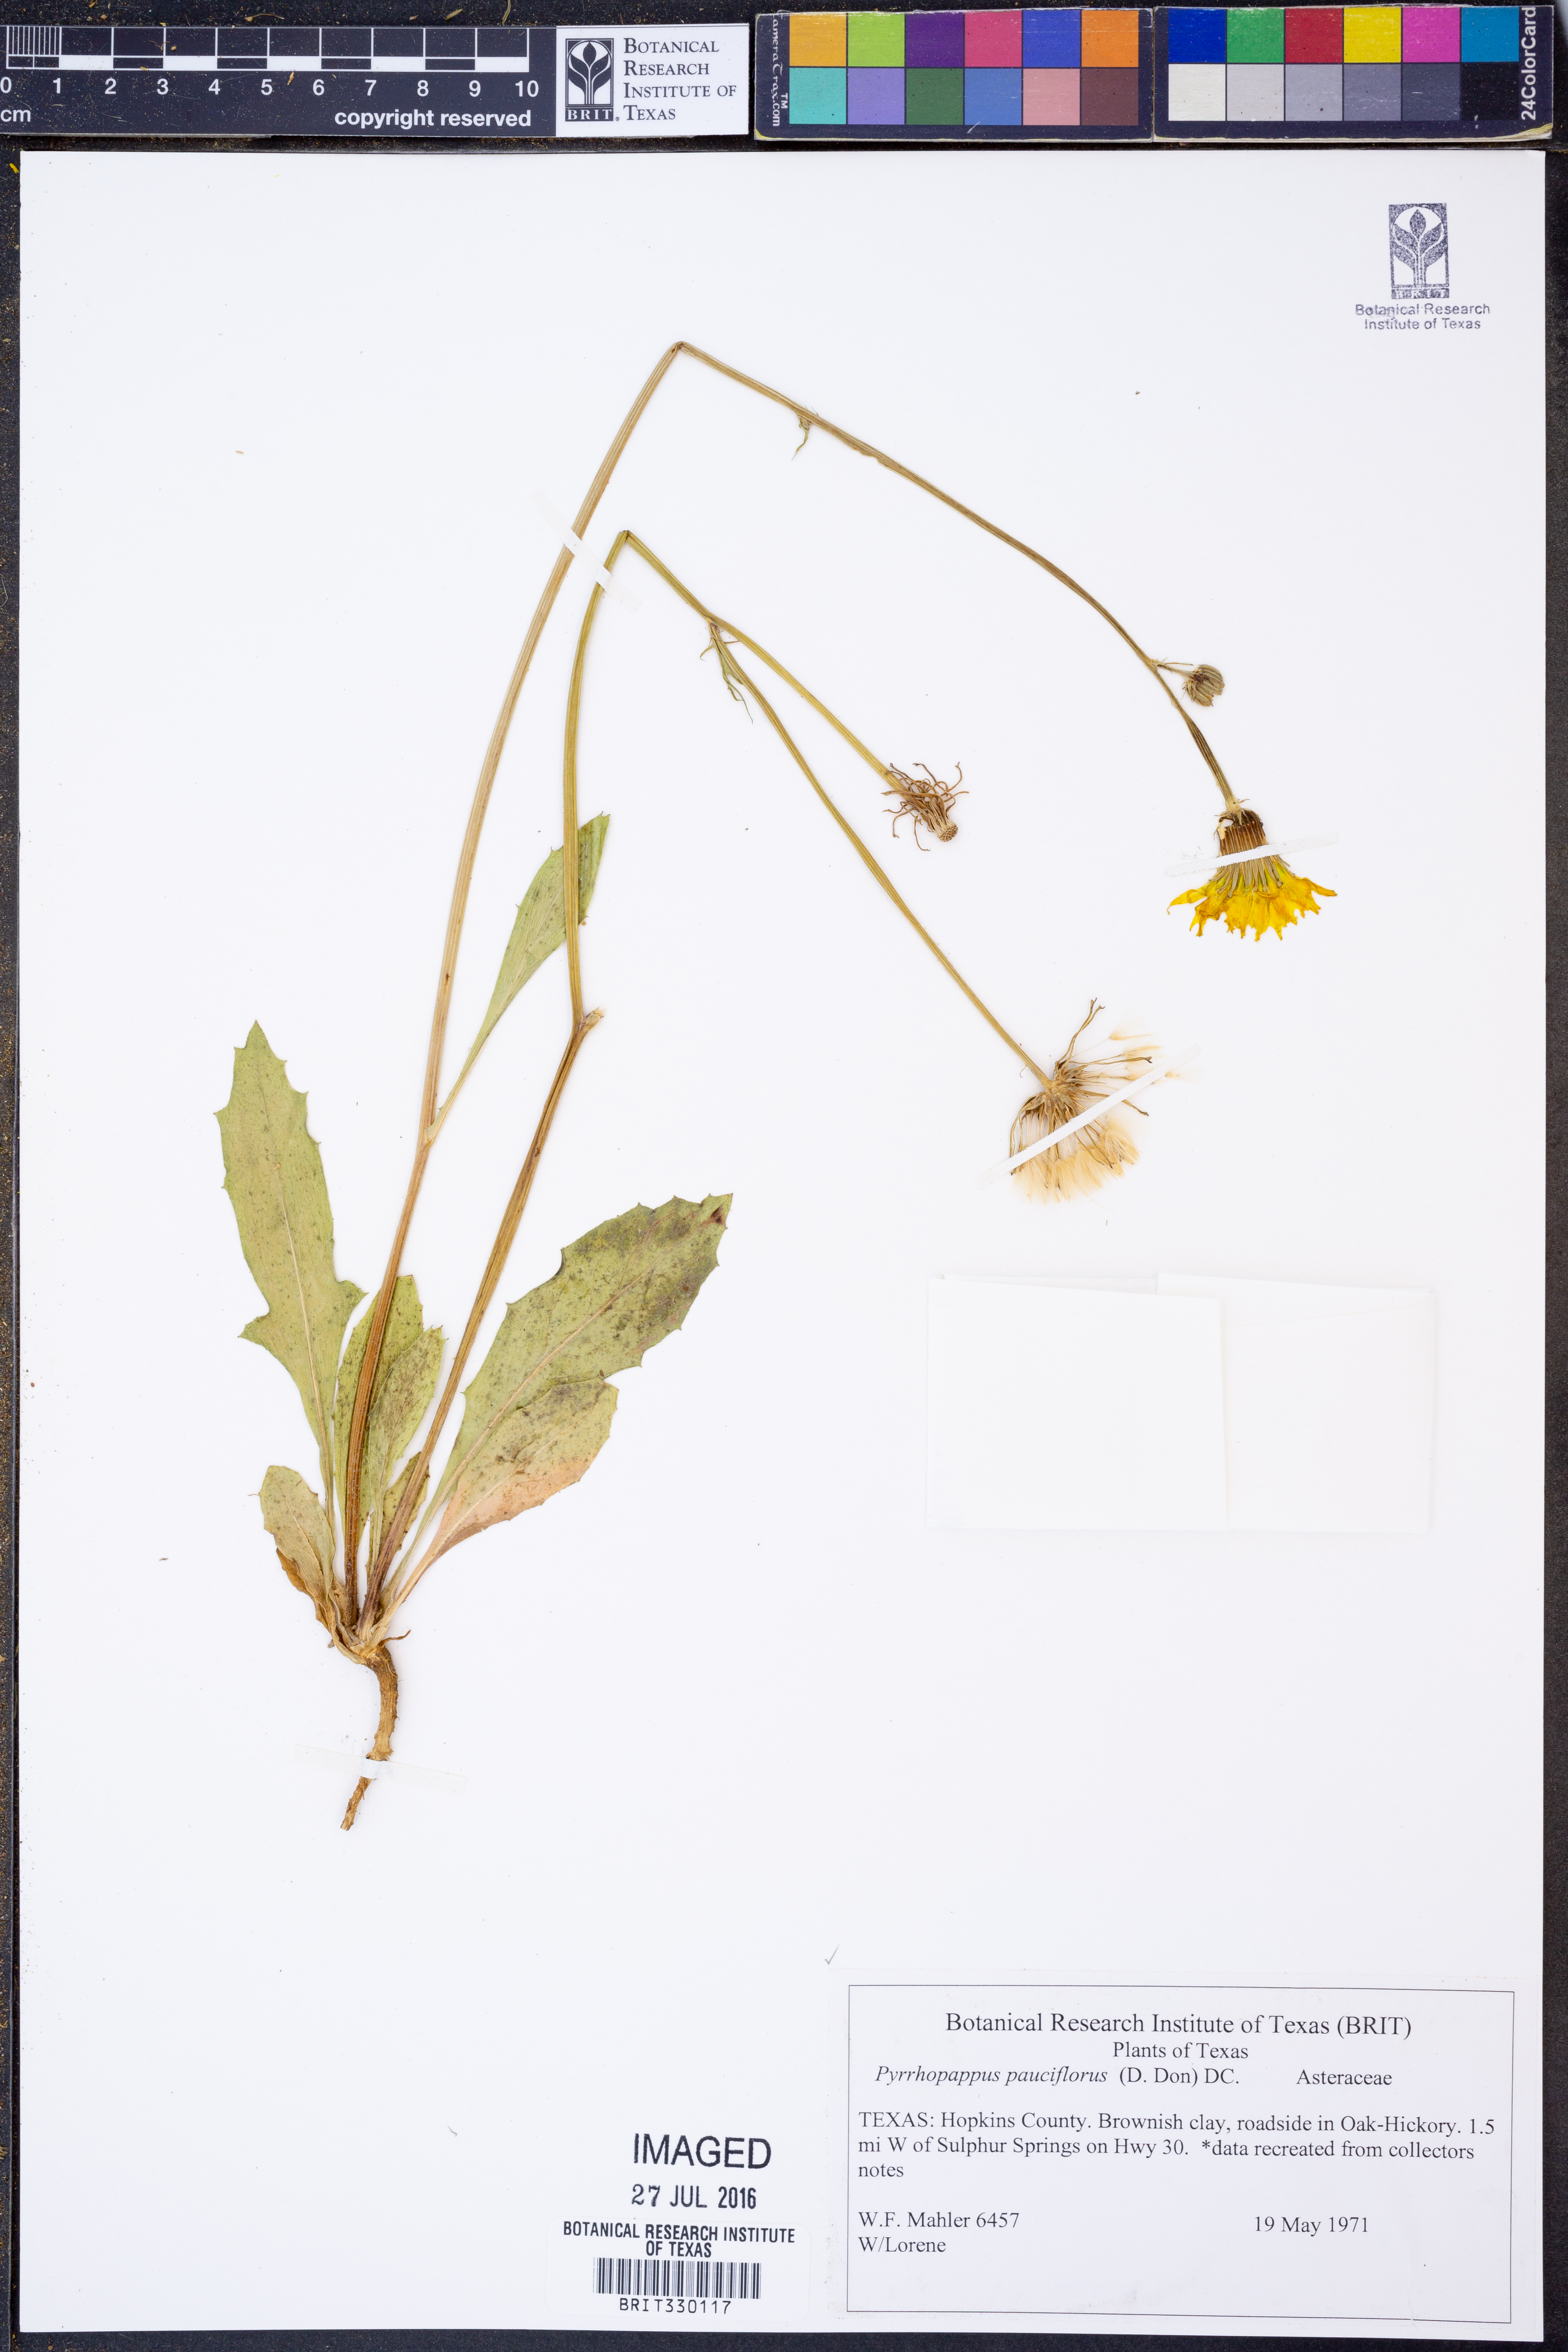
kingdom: Plantae
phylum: Tracheophyta
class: Magnoliopsida
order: Asterales
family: Asteraceae
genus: Pyrrhopappus
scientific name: Pyrrhopappus pauciflorus
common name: Texas false dandelion
